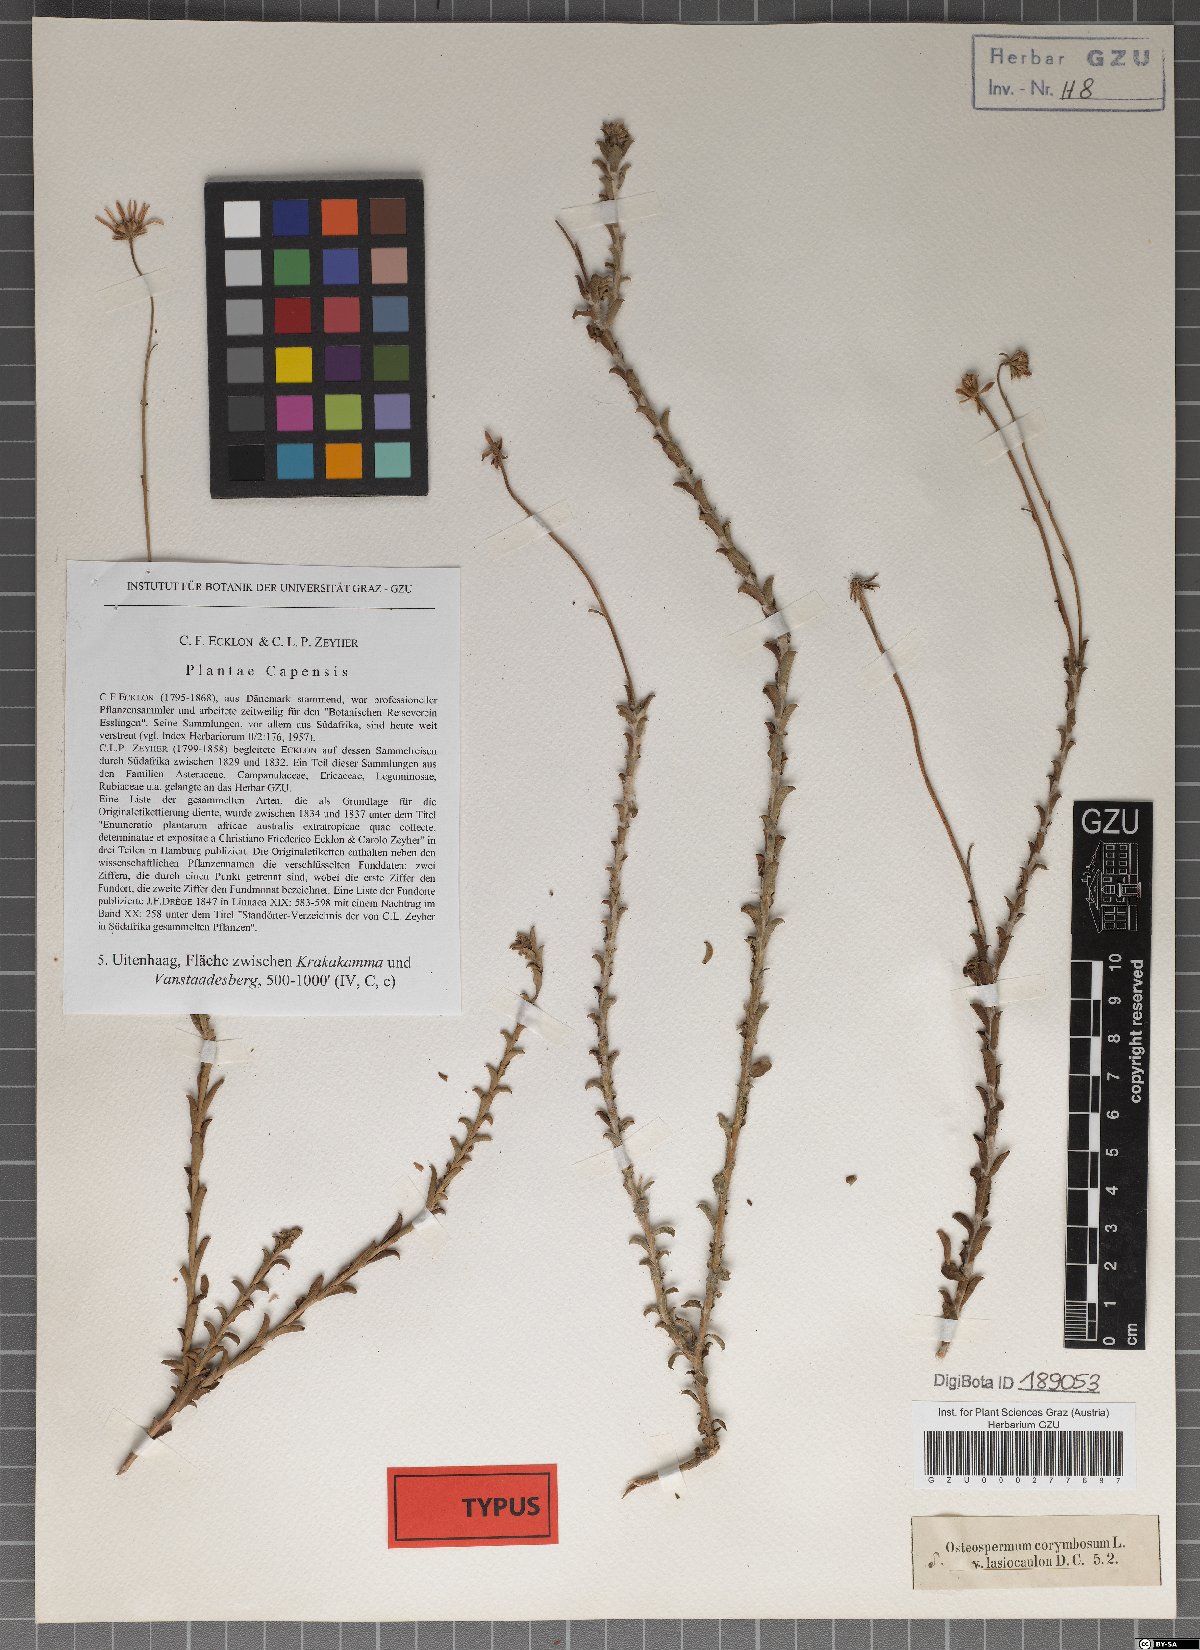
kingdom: Plantae
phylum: Tracheophyta
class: Magnoliopsida
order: Asterales
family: Asteraceae
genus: Osteospermum
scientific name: Osteospermum imbricatum
